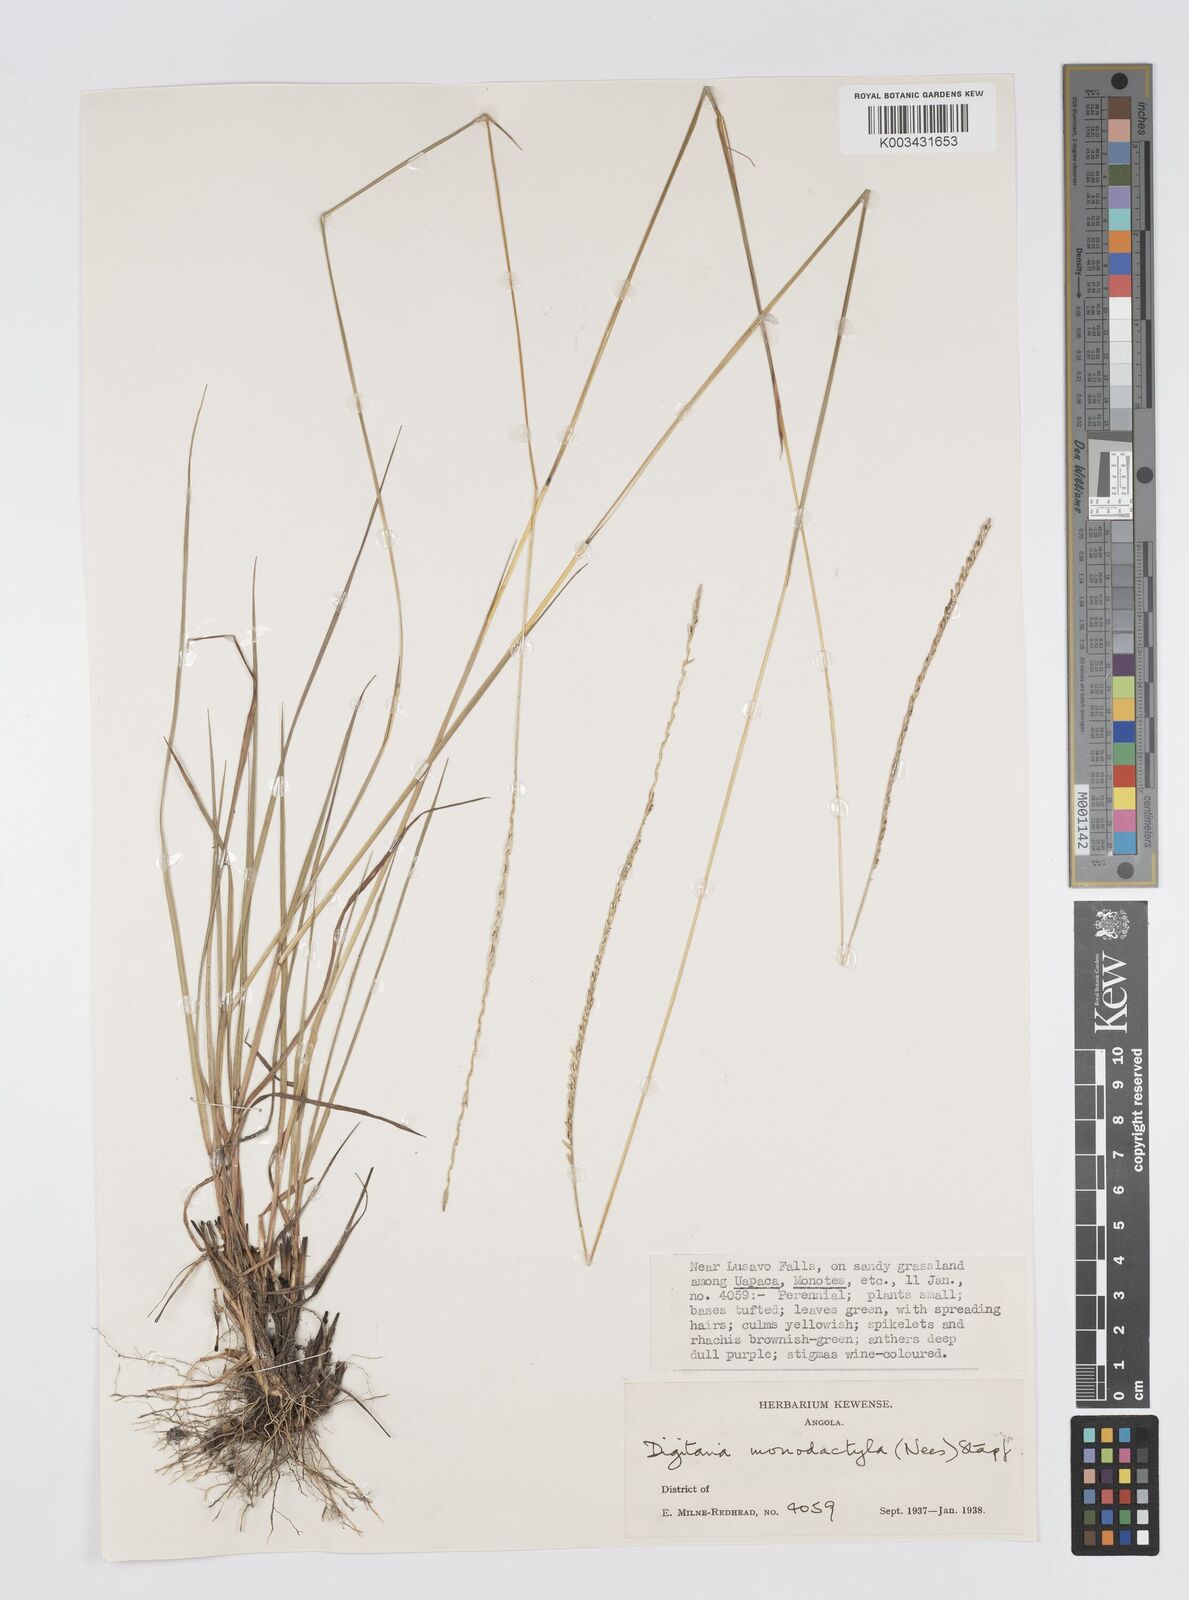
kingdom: Plantae
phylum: Tracheophyta
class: Liliopsida
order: Poales
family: Poaceae
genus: Digitaria
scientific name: Digitaria monodactyla
